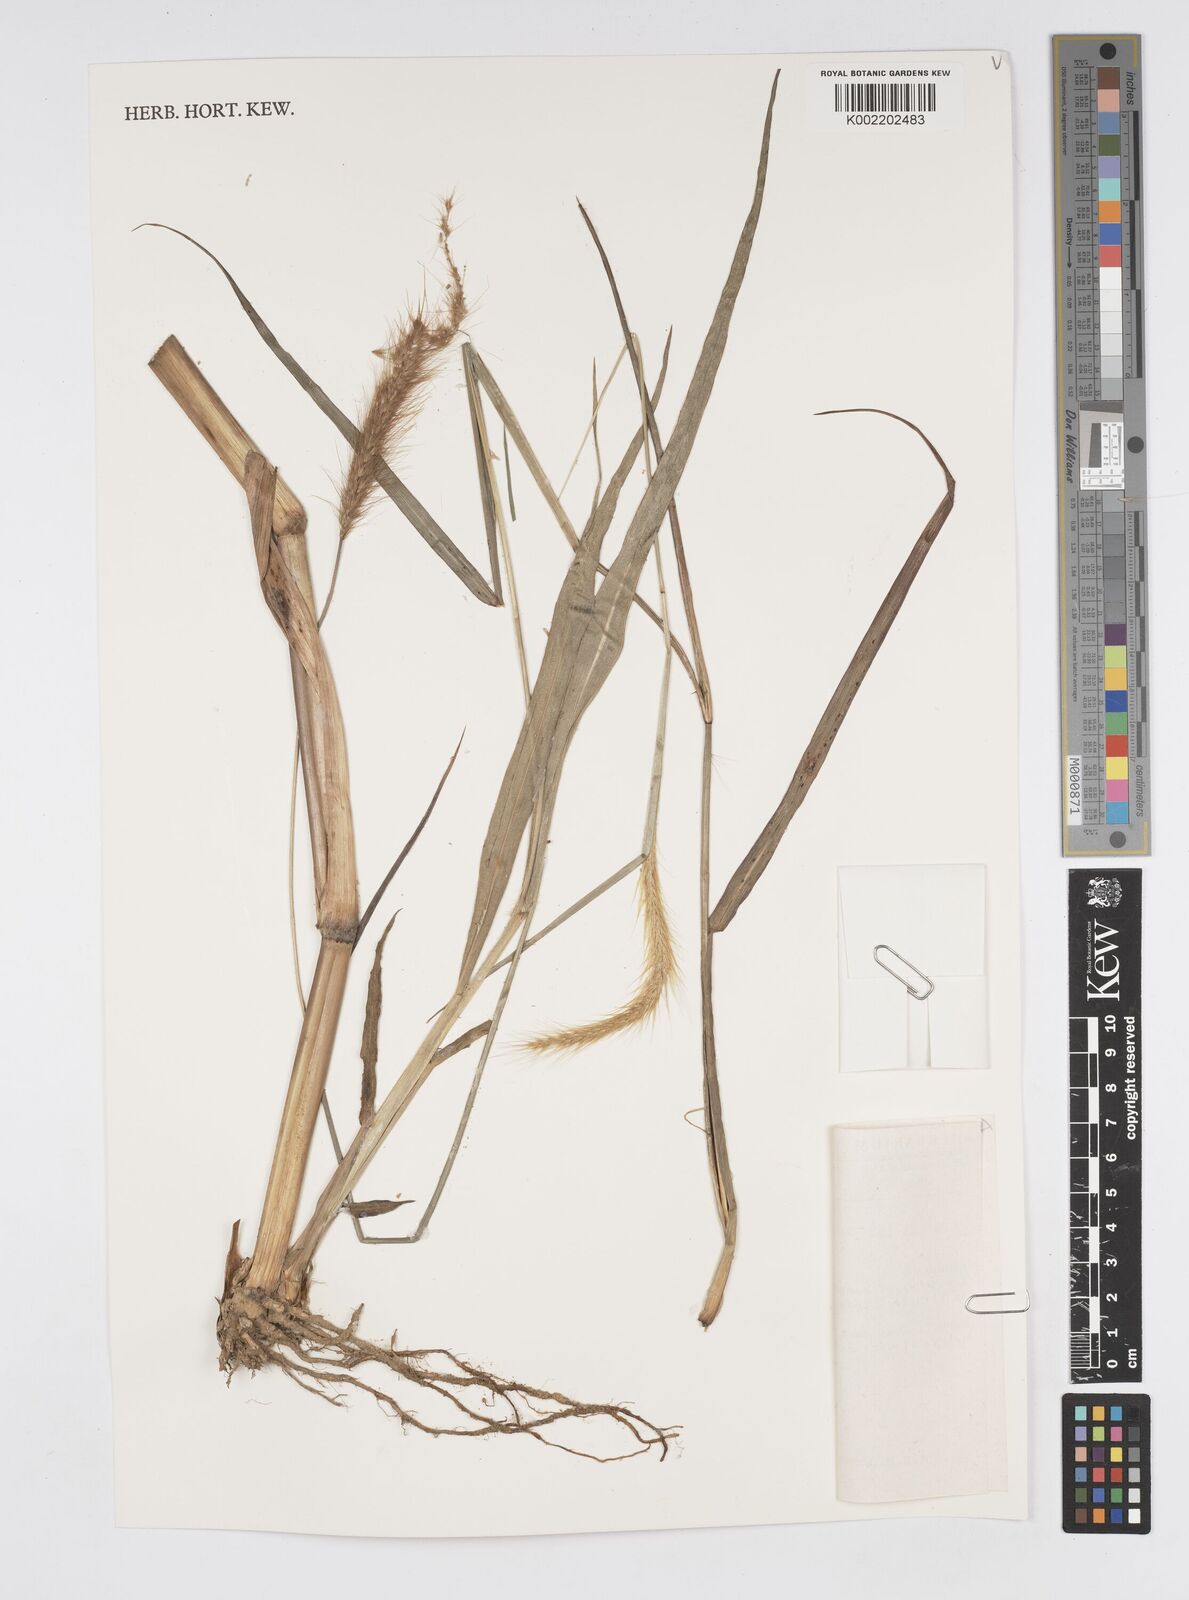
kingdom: Plantae
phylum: Tracheophyta
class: Liliopsida
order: Poales
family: Poaceae
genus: Setaria
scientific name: Setaria parviflora
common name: Knotroot bristle-grass
